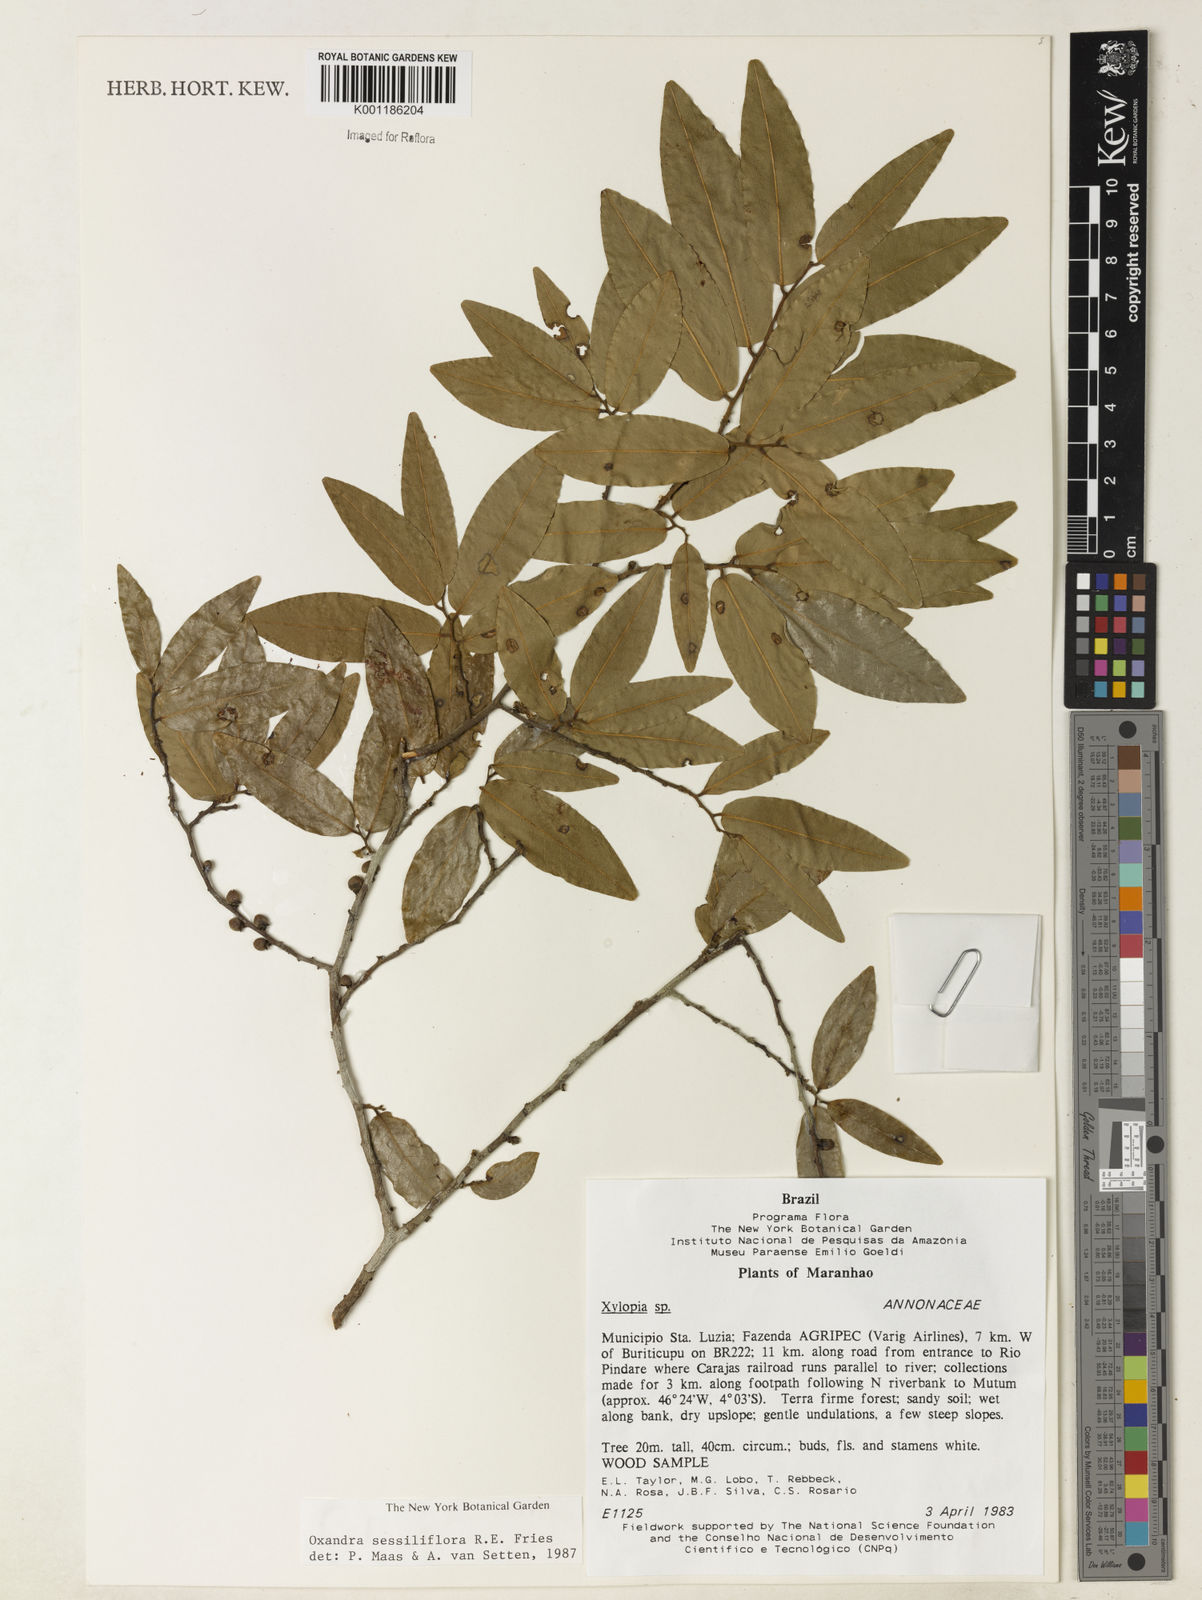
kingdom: Plantae
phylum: Tracheophyta
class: Magnoliopsida
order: Magnoliales
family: Annonaceae
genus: Oxandra
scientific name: Oxandra sessiliflora
